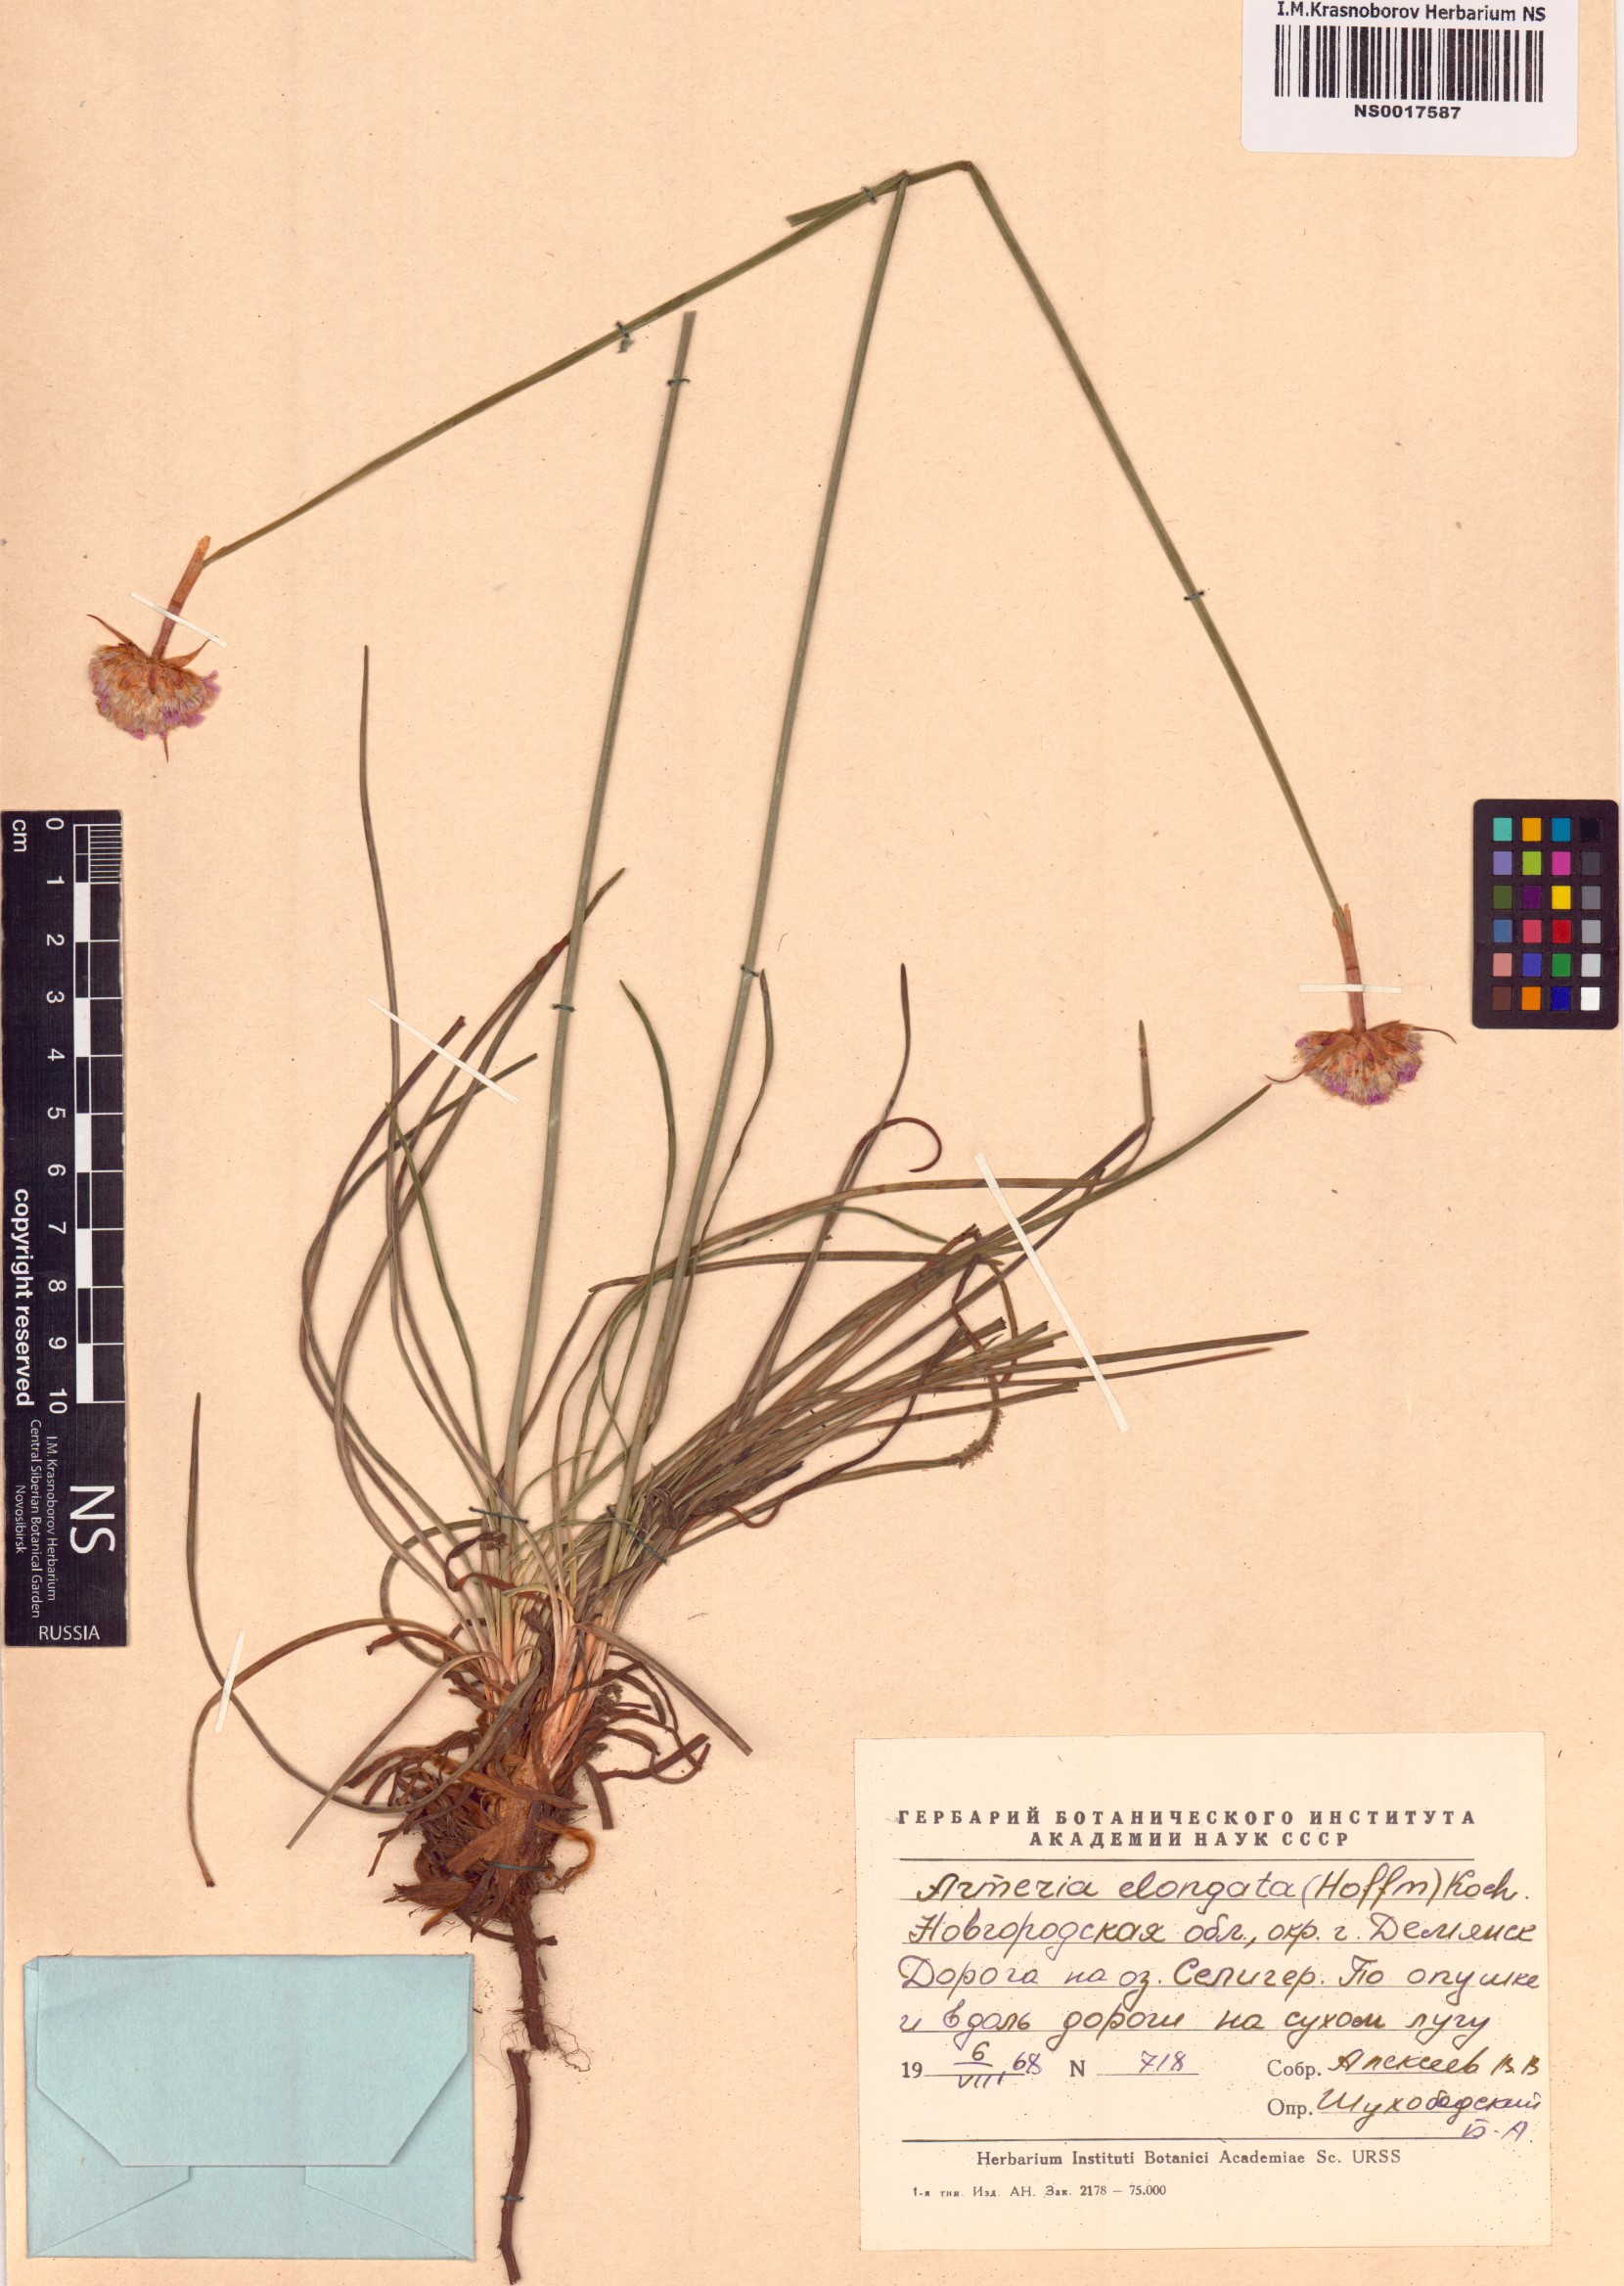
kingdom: Plantae
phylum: Tracheophyta
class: Magnoliopsida
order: Caryophyllales
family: Plumbaginaceae
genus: Armeria
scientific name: Armeria maritima
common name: Thrift
